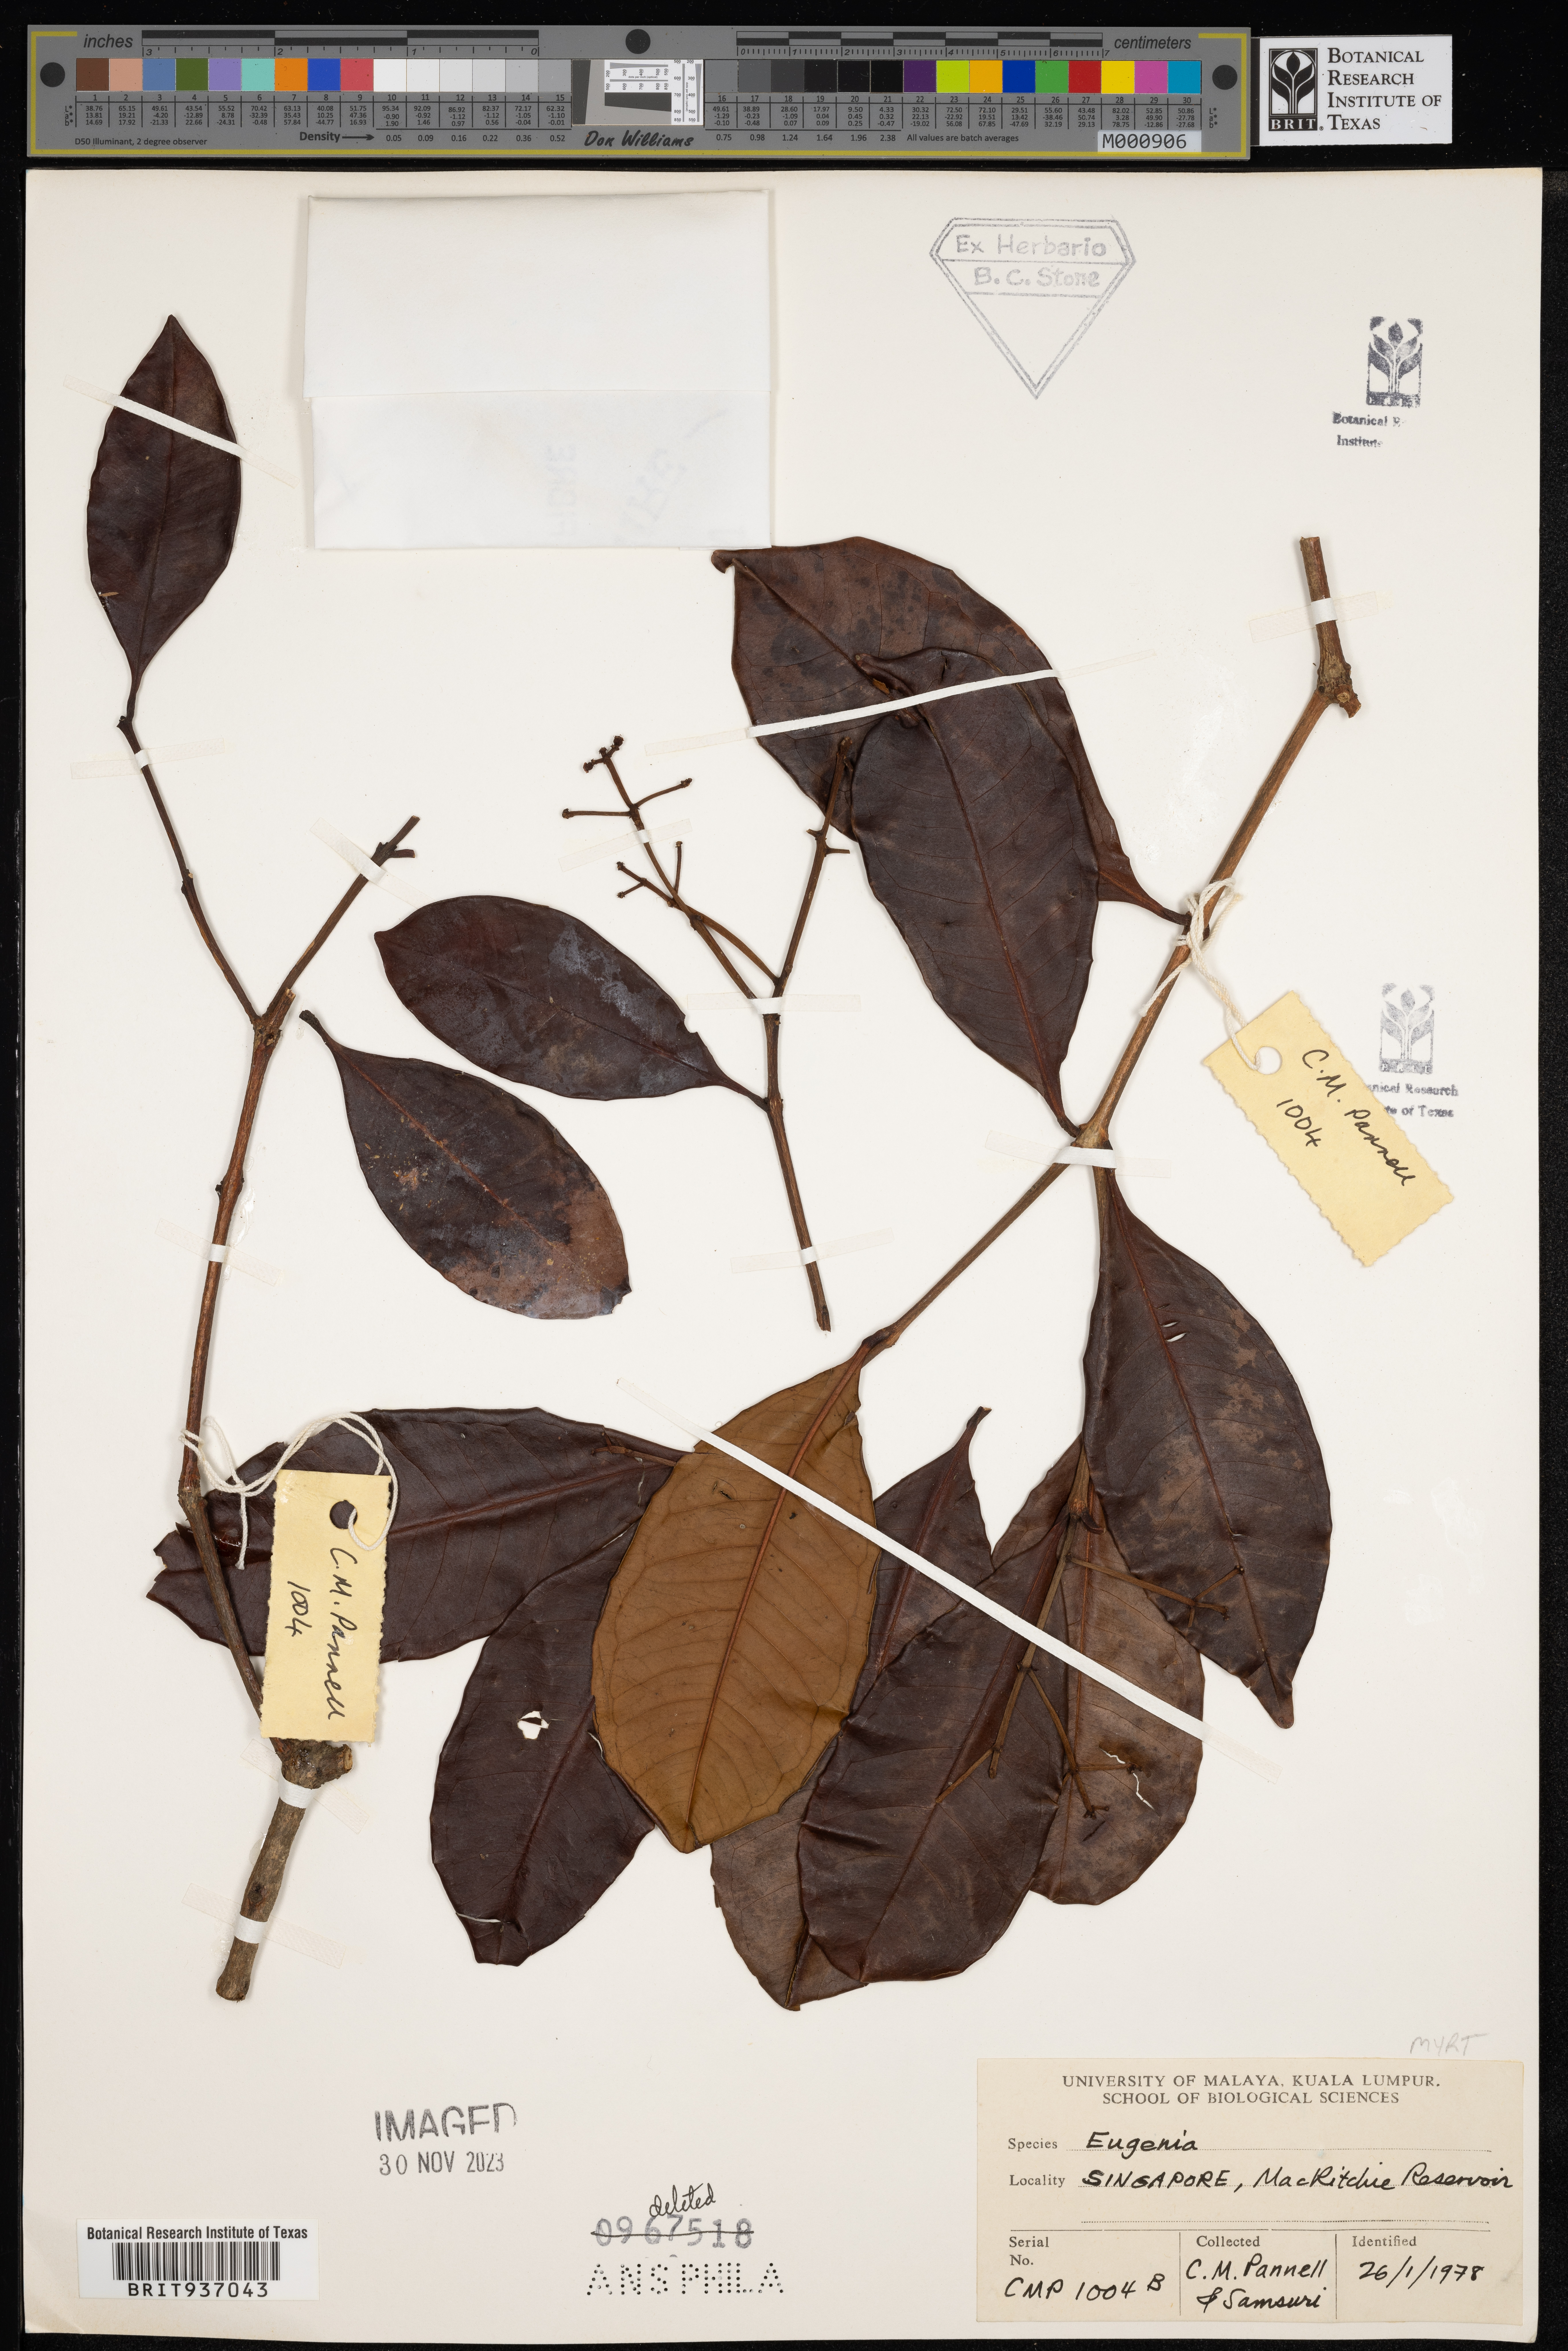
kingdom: Plantae
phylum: Tracheophyta
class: Magnoliopsida
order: Myrtales
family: Myrtaceae
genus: Eugenia
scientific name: Eugenia
